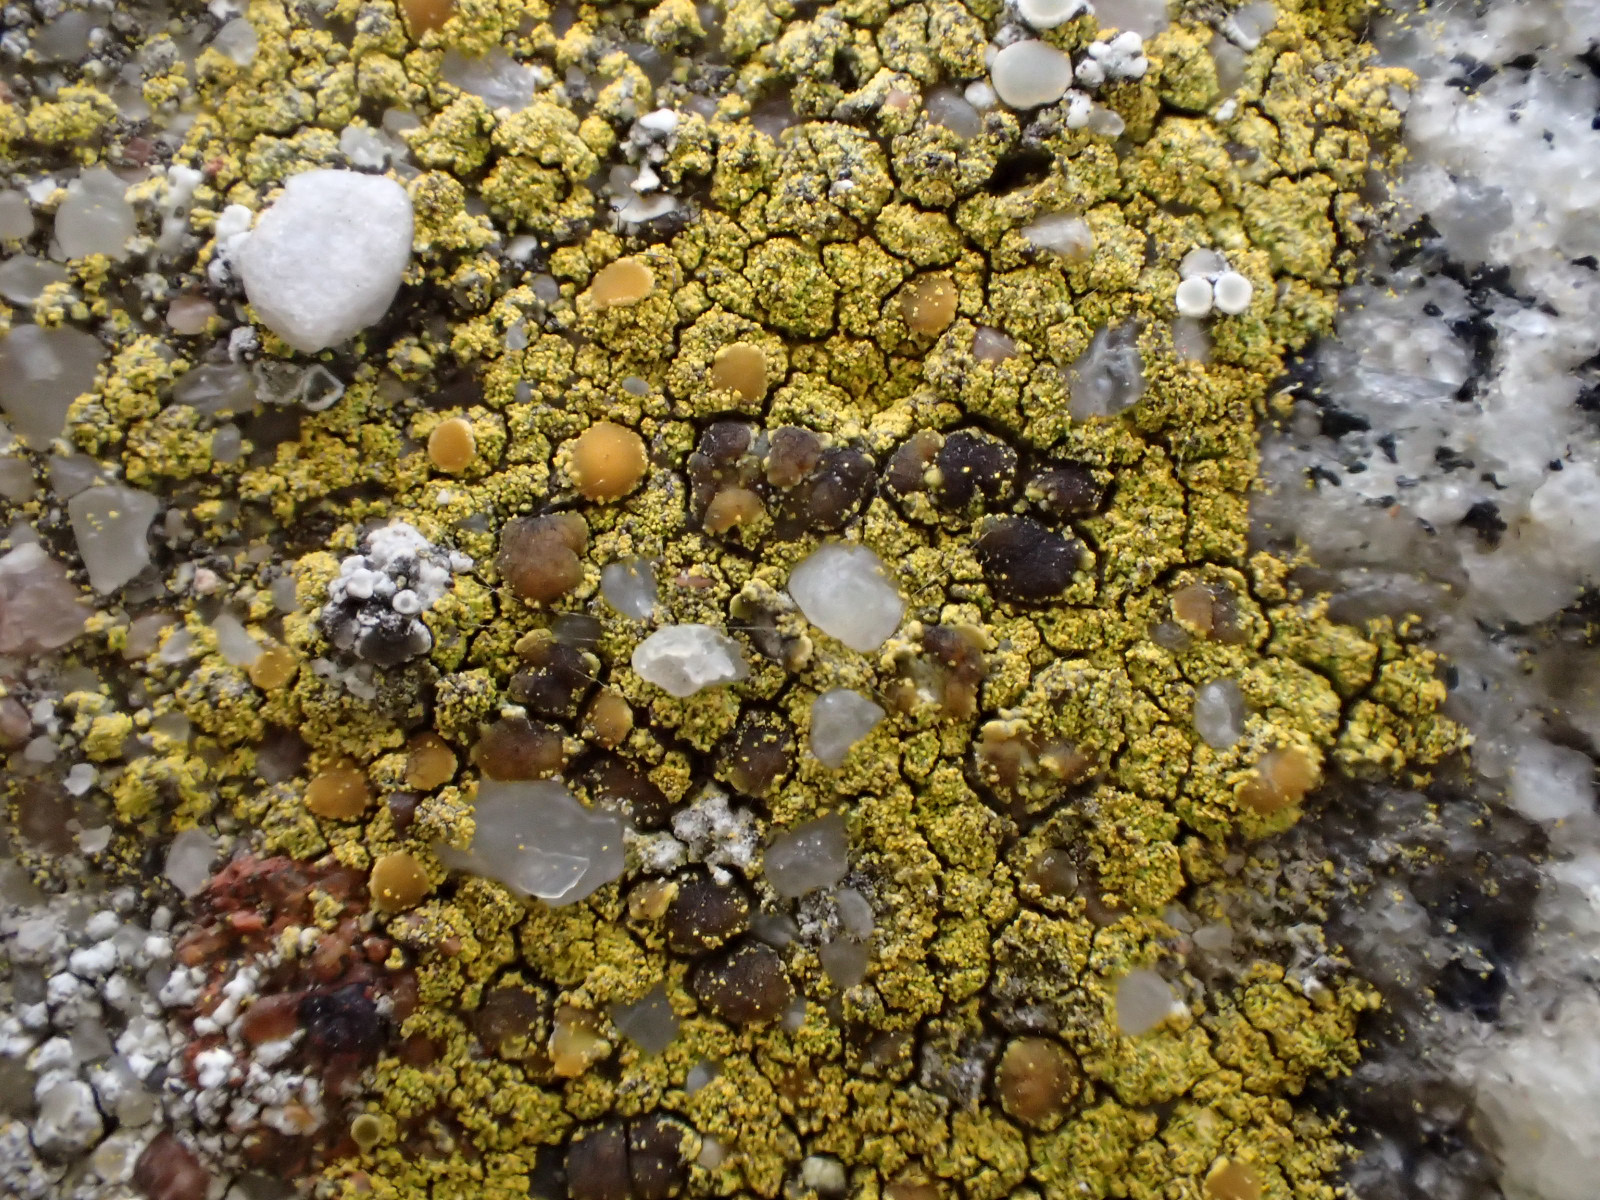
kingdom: Fungi
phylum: Ascomycota
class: Candelariomycetes
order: Candelariales
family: Candelariaceae
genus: Candelariella
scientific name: Candelariella vitellina
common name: almindelig æggeblommelav
